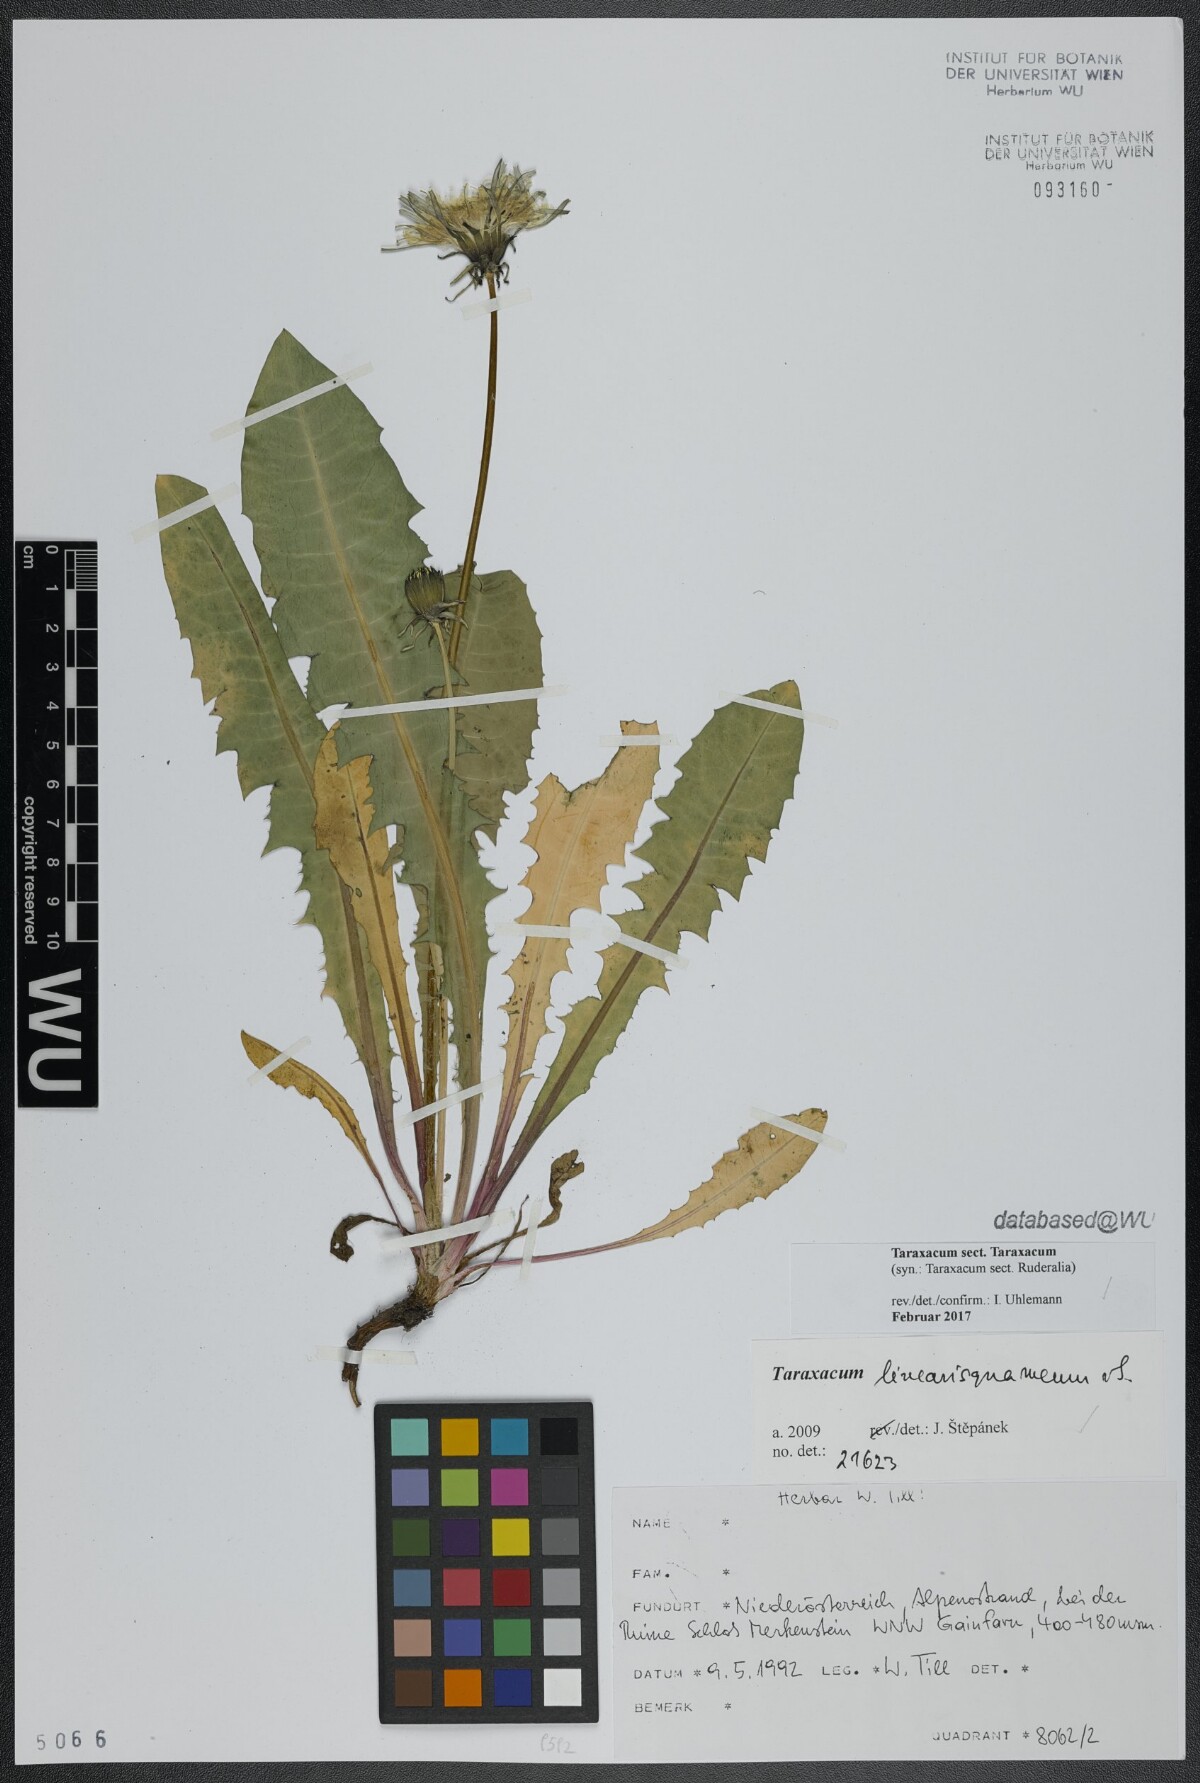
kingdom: Plantae
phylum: Tracheophyta
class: Magnoliopsida
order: Asterales
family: Asteraceae
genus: Taraxacum
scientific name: Taraxacum
